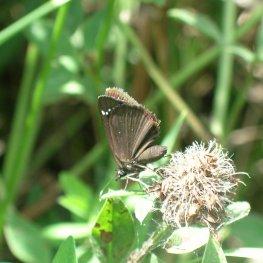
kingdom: Animalia
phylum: Arthropoda
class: Insecta
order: Lepidoptera
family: Hesperiidae
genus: Pholisora
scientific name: Pholisora catullus
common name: Common Sootywing
